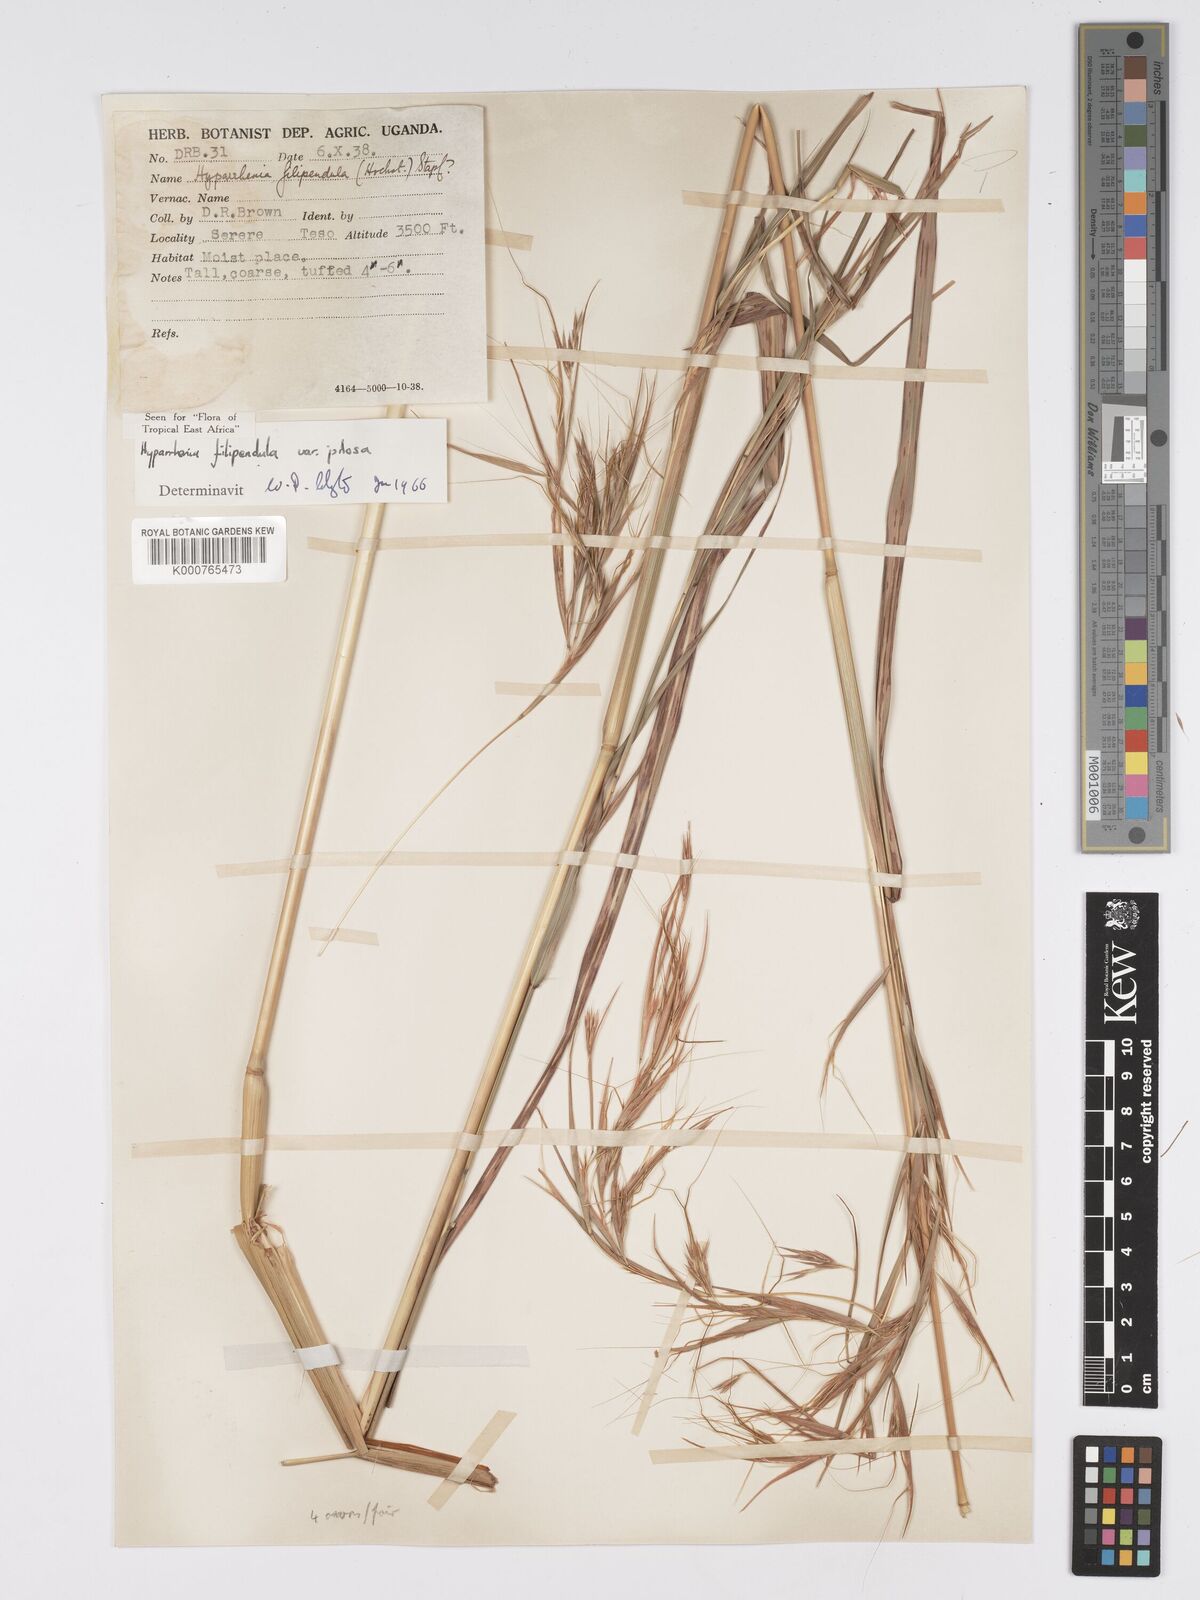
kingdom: Plantae
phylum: Tracheophyta
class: Liliopsida
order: Poales
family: Poaceae
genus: Hyparrhenia
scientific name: Hyparrhenia filipendula
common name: Tambookie grass
